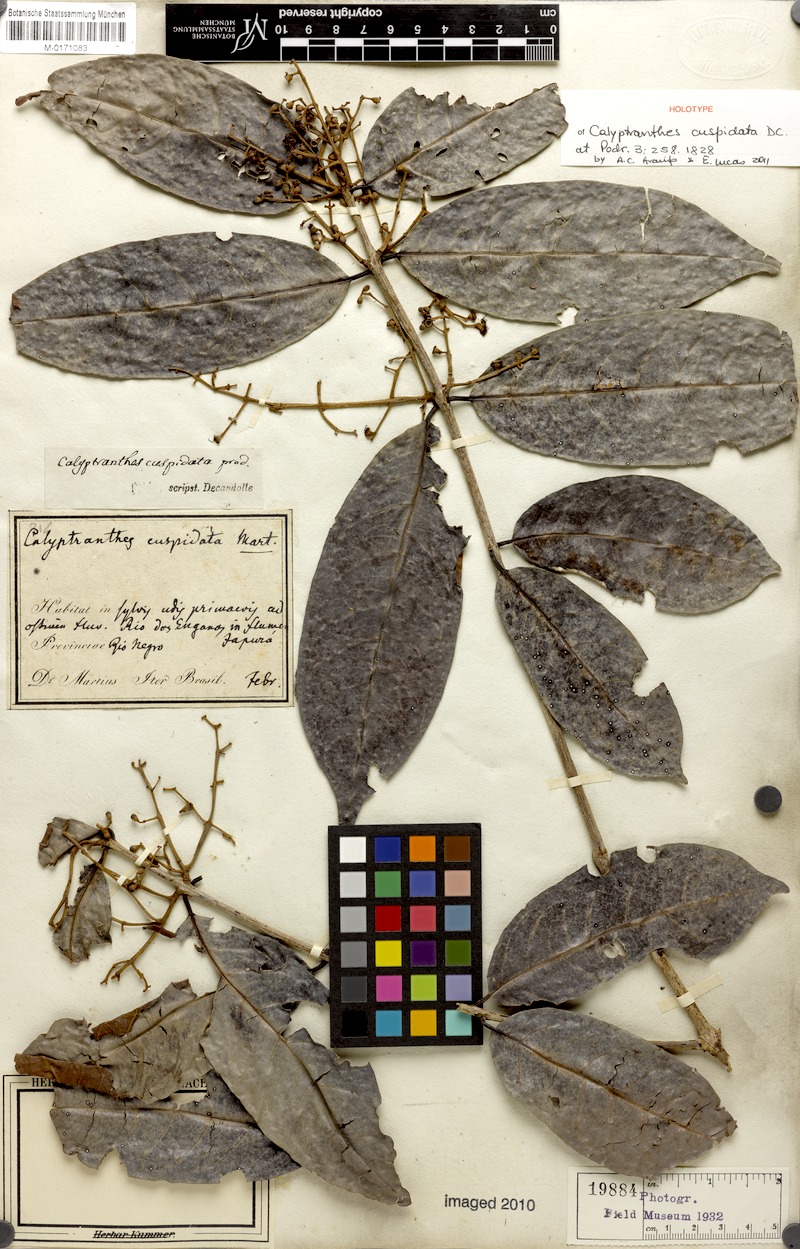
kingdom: Plantae
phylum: Tracheophyta
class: Magnoliopsida
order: Myrtales
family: Myrtaceae
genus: Myrcia
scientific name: Myrcia cuspidata
